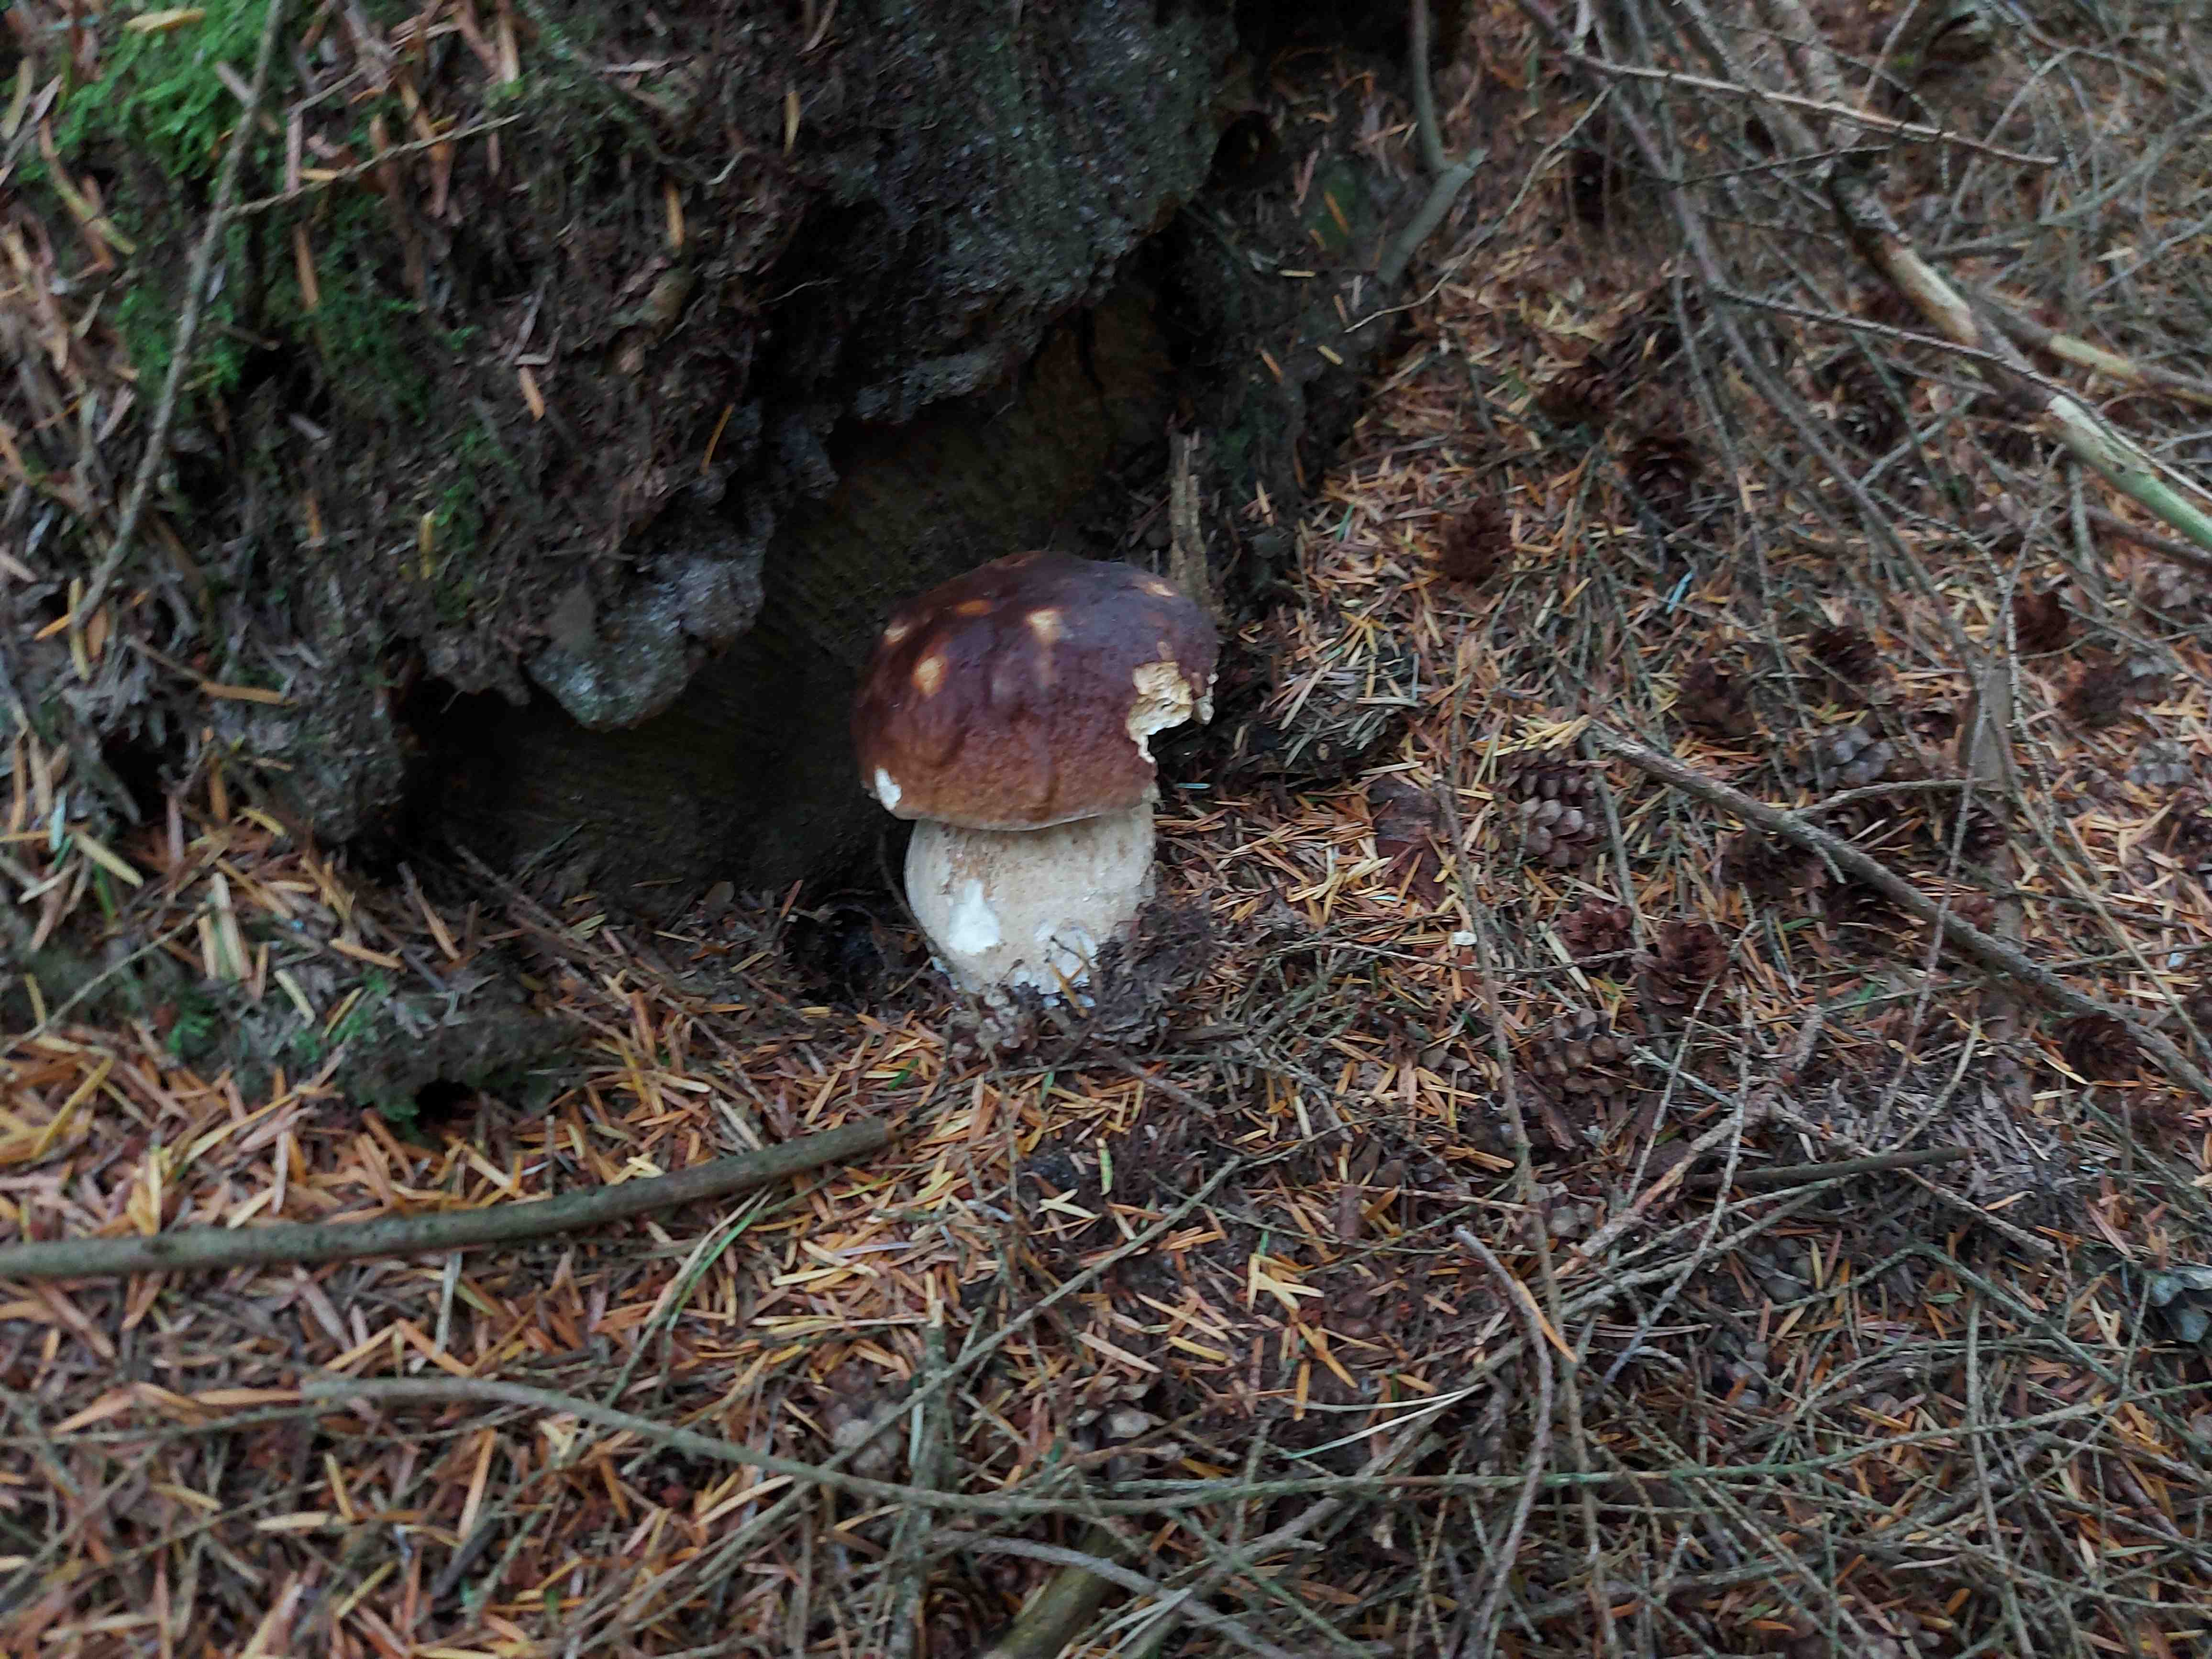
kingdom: Fungi
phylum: Basidiomycota
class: Agaricomycetes
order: Boletales
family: Boletaceae
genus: Boletus
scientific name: Boletus edulis
